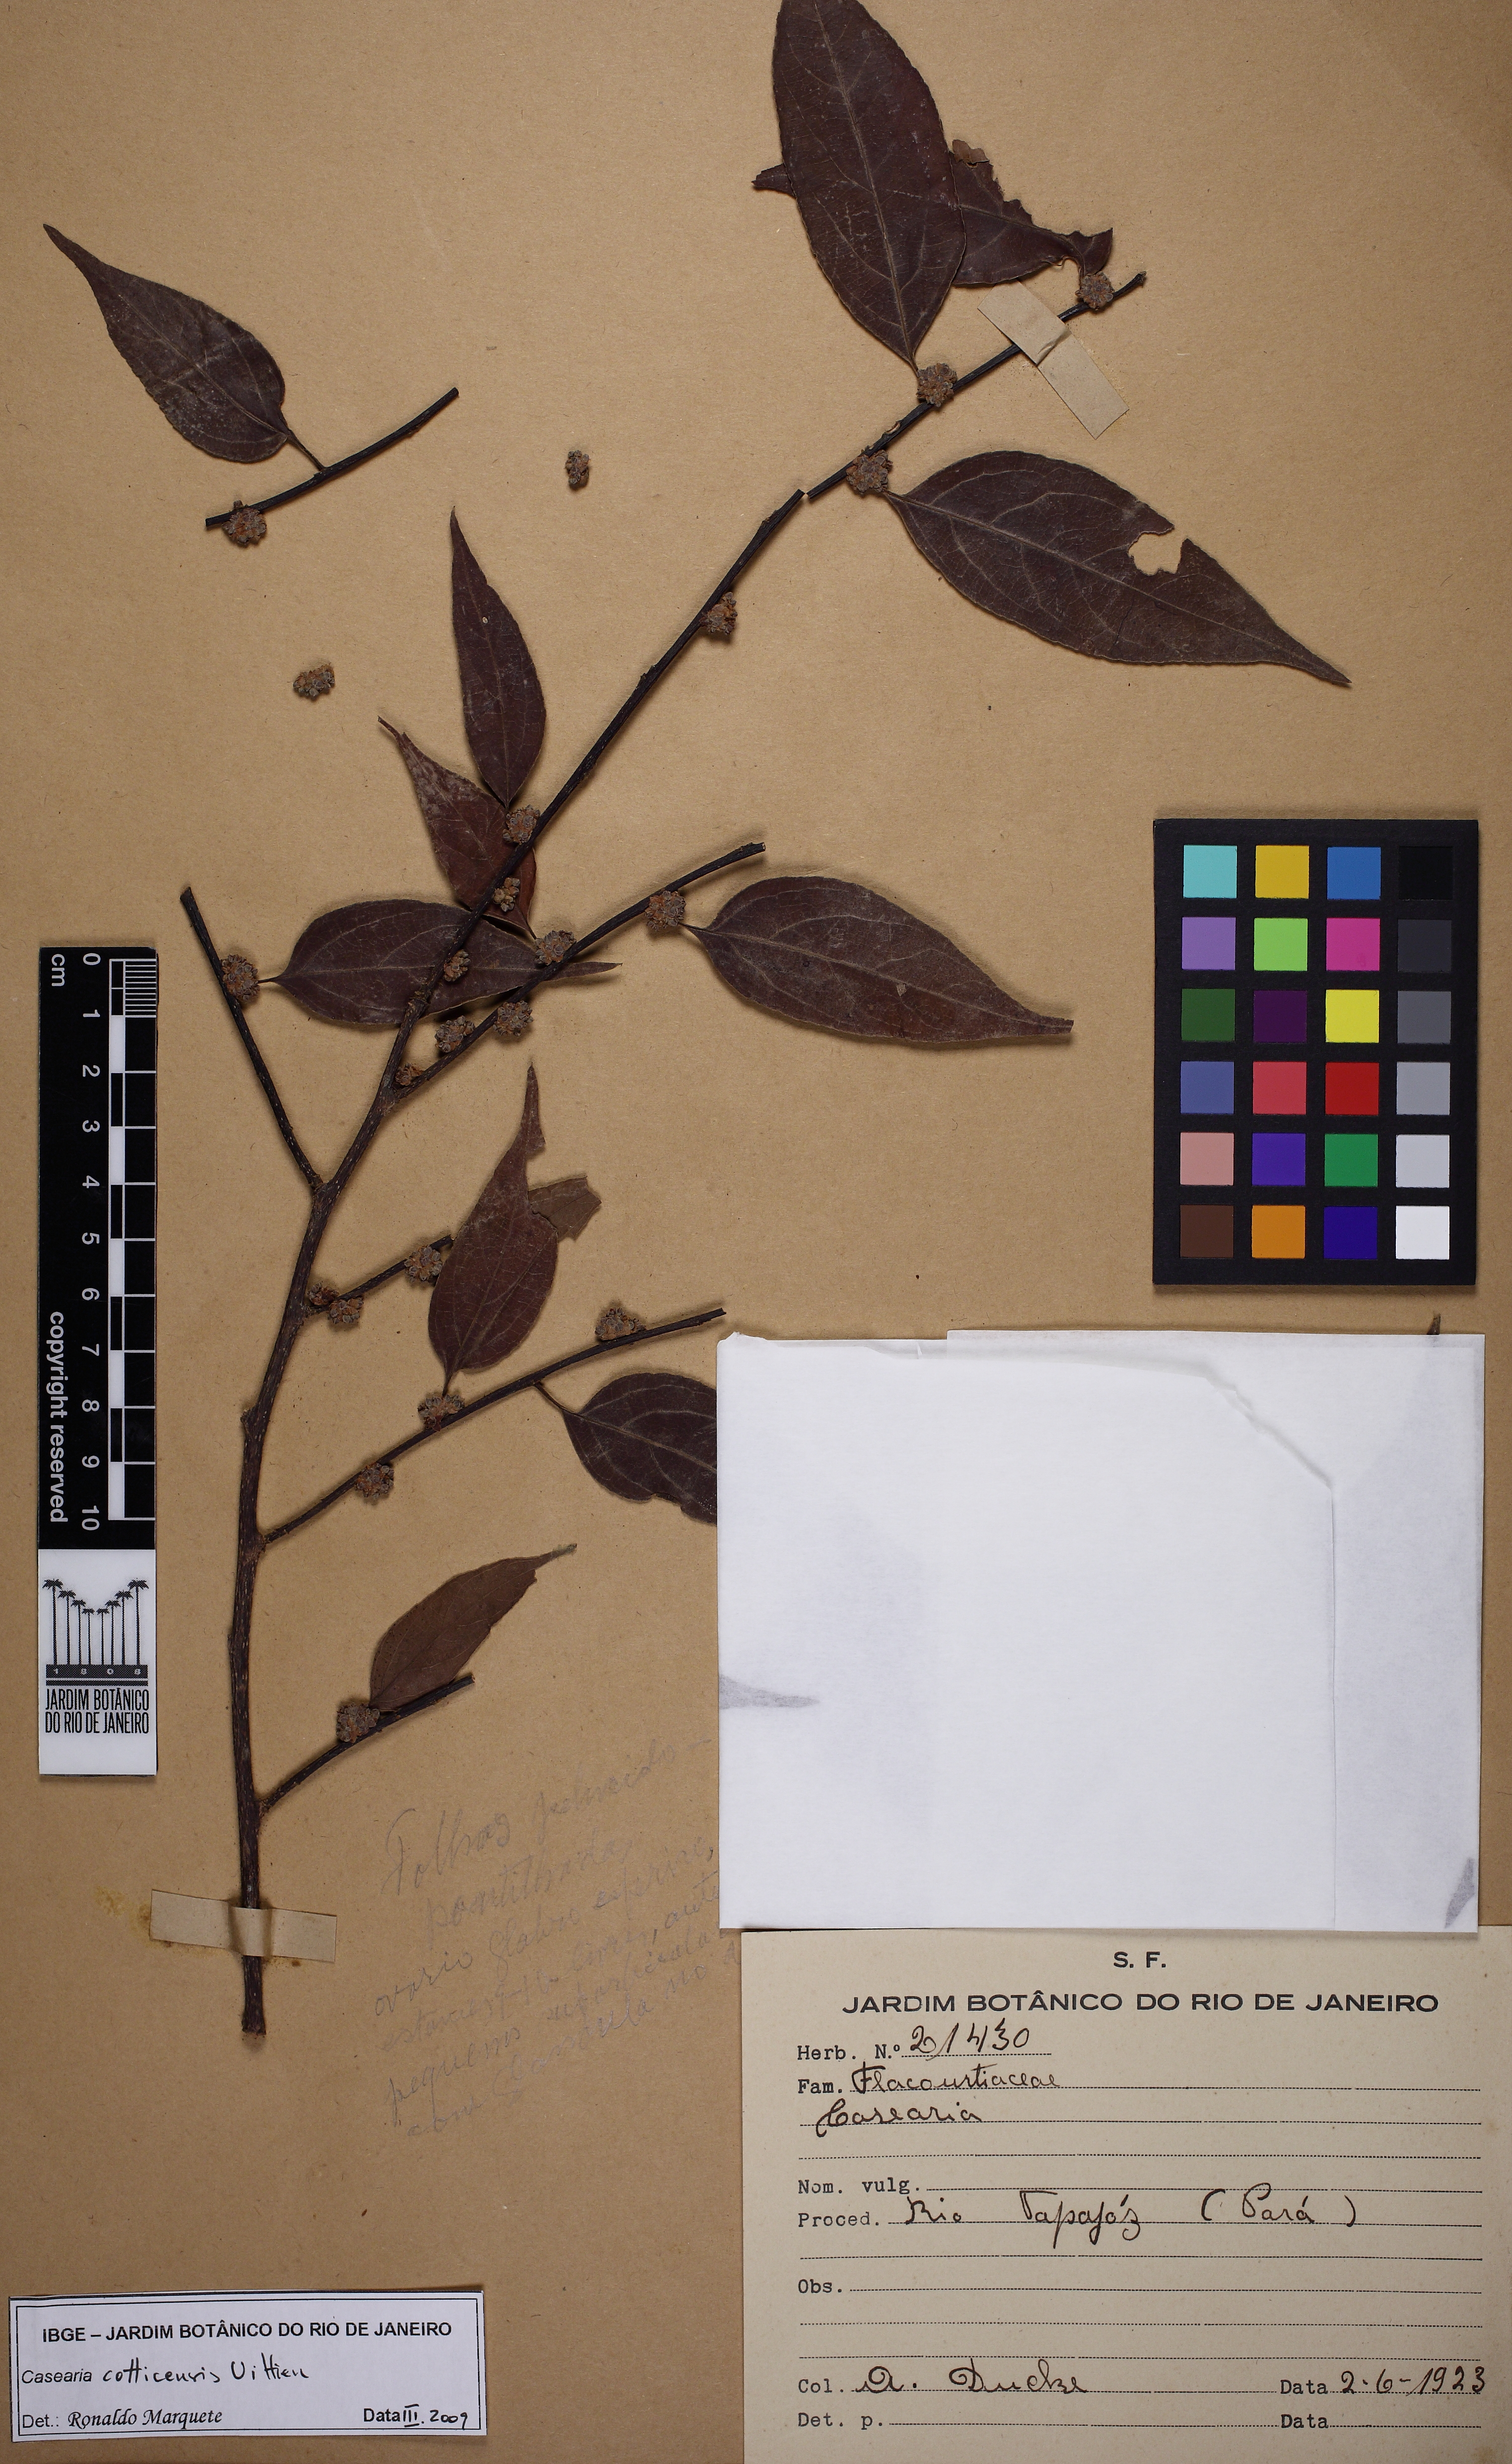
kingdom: Plantae
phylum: Tracheophyta
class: Magnoliopsida
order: Malpighiales
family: Salicaceae
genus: Casearia
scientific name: Casearia cotticensis
